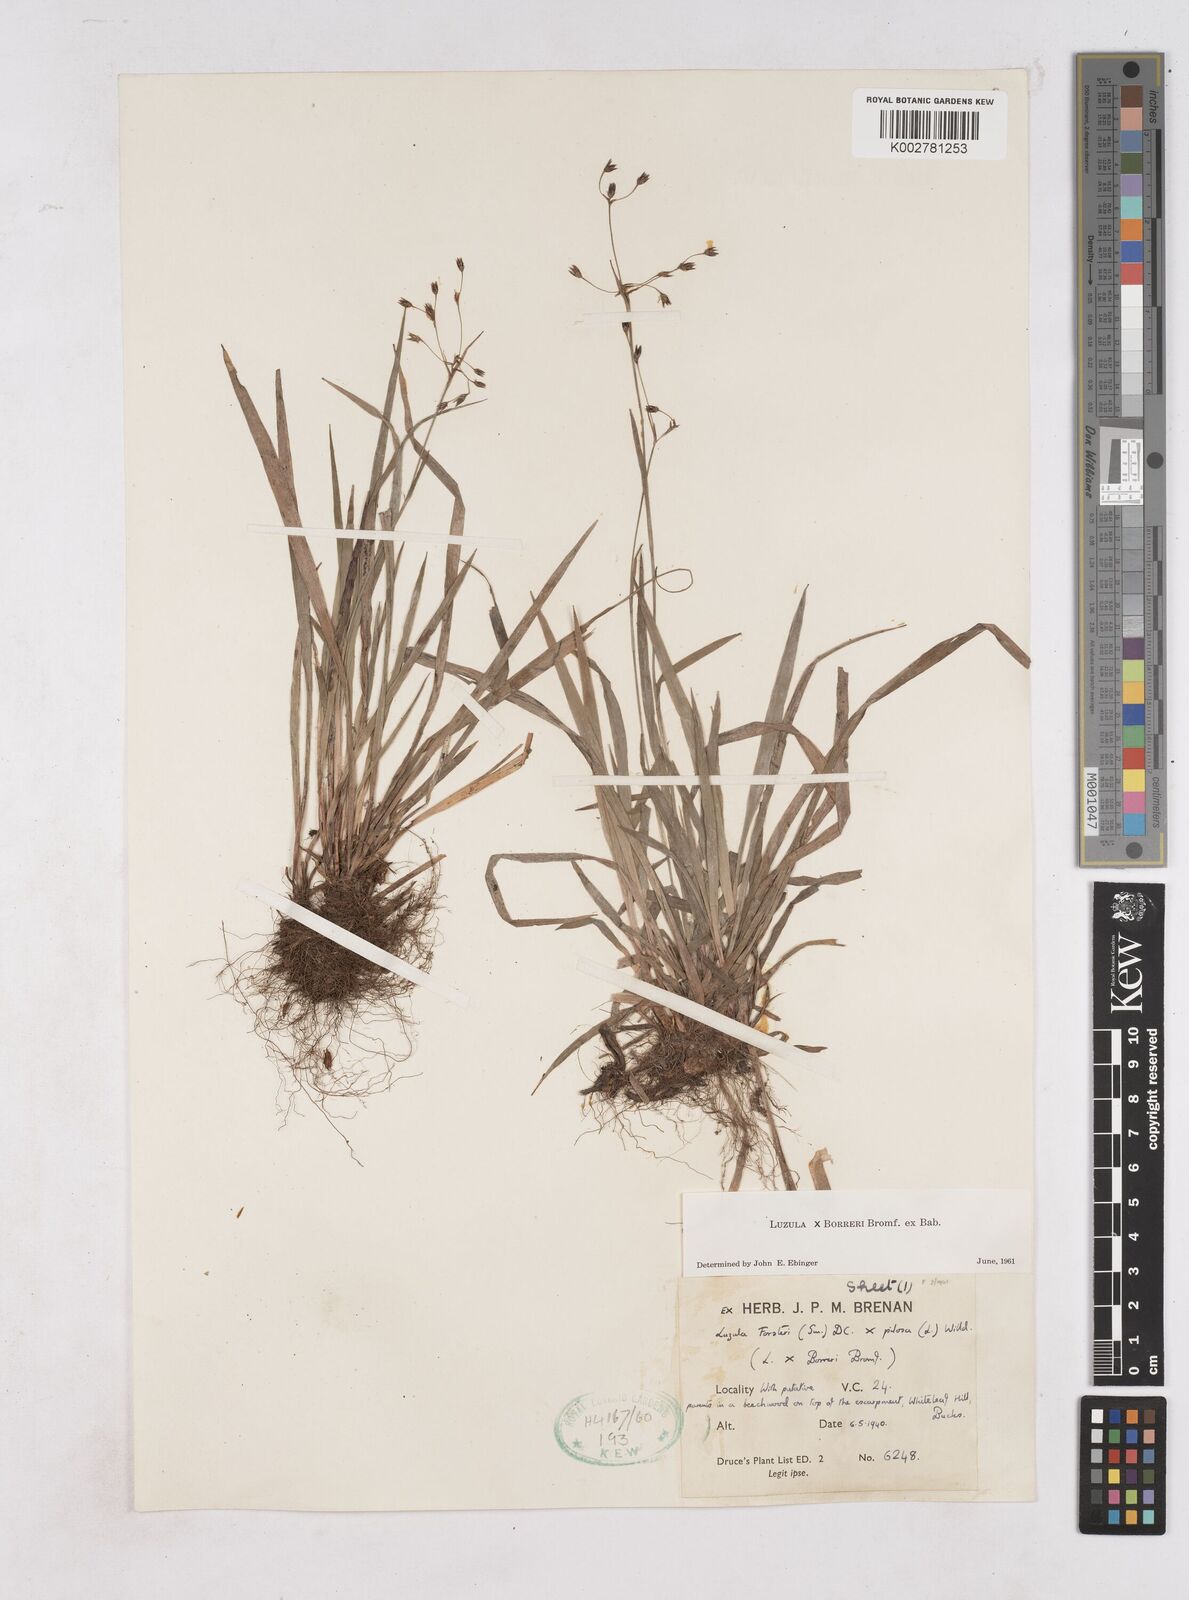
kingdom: Plantae
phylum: Tracheophyta
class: Liliopsida
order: Poales
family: Juncaceae
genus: Luzula
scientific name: Luzula forsteri
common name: Southern wood-rush
